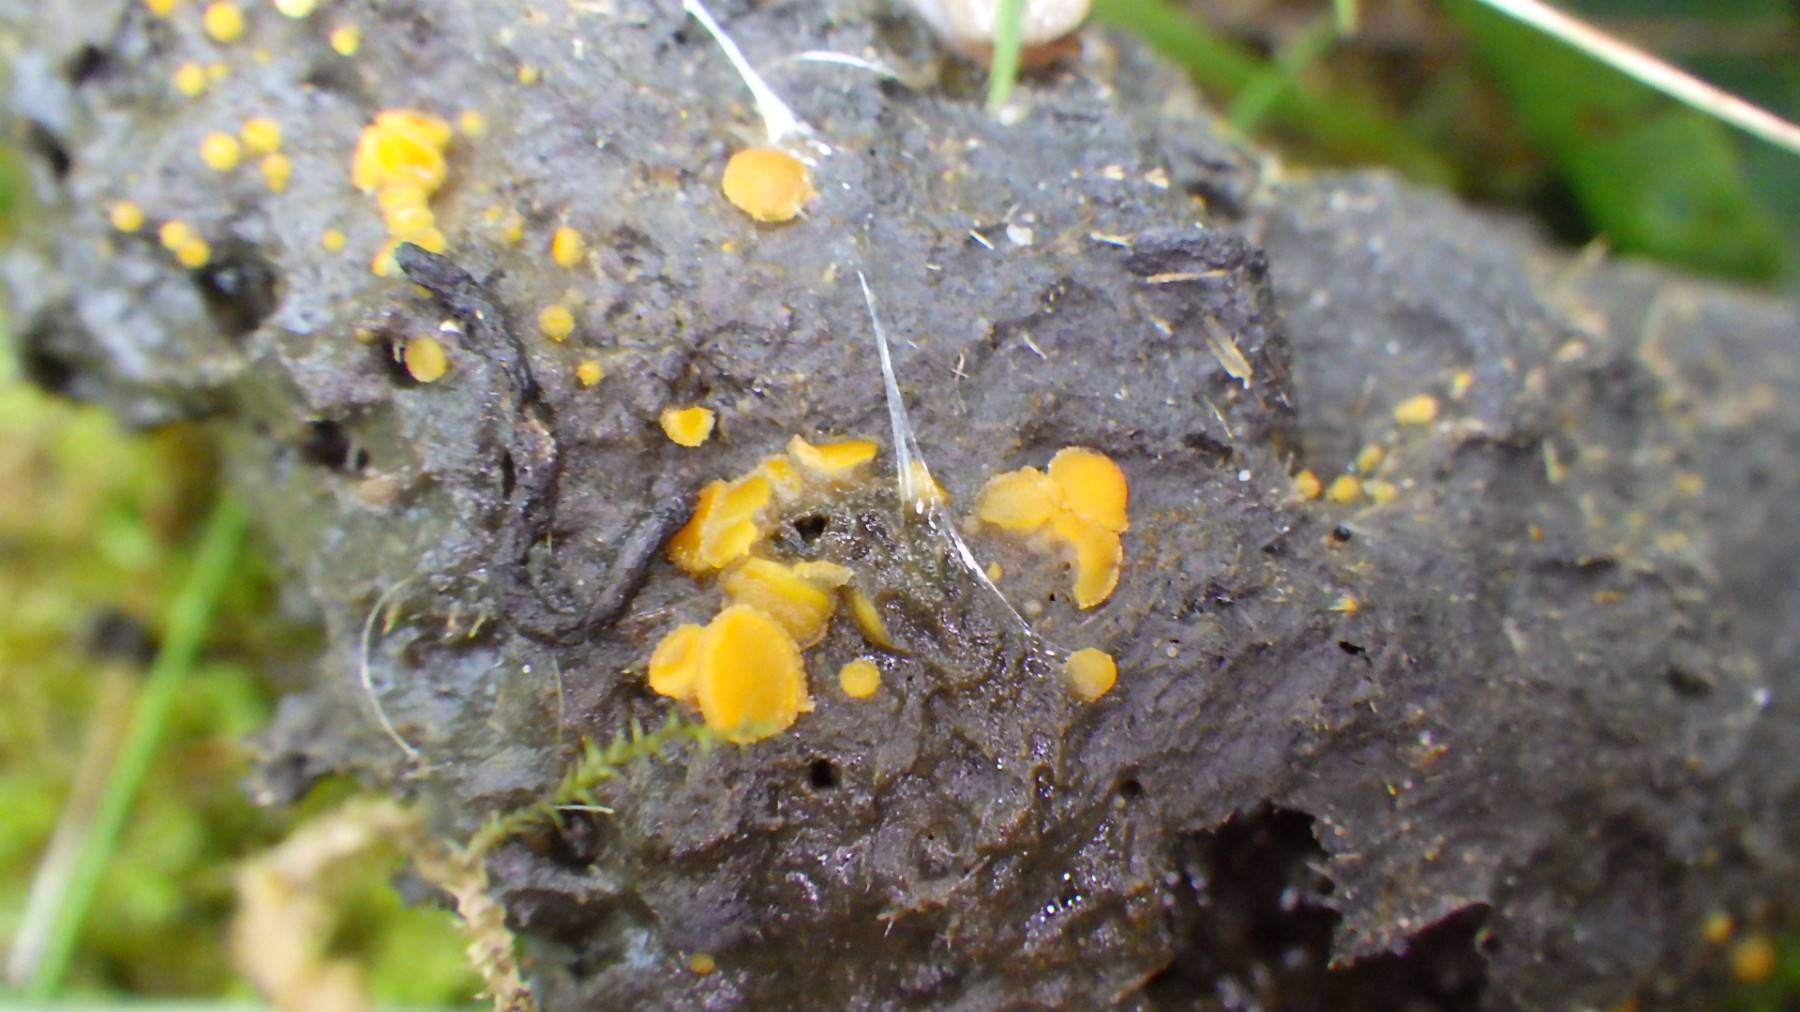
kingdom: Fungi
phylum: Ascomycota
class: Pezizomycetes
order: Pezizales
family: Pyronemataceae
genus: Cheilymenia
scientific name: Cheilymenia granulata
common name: møgbæger
